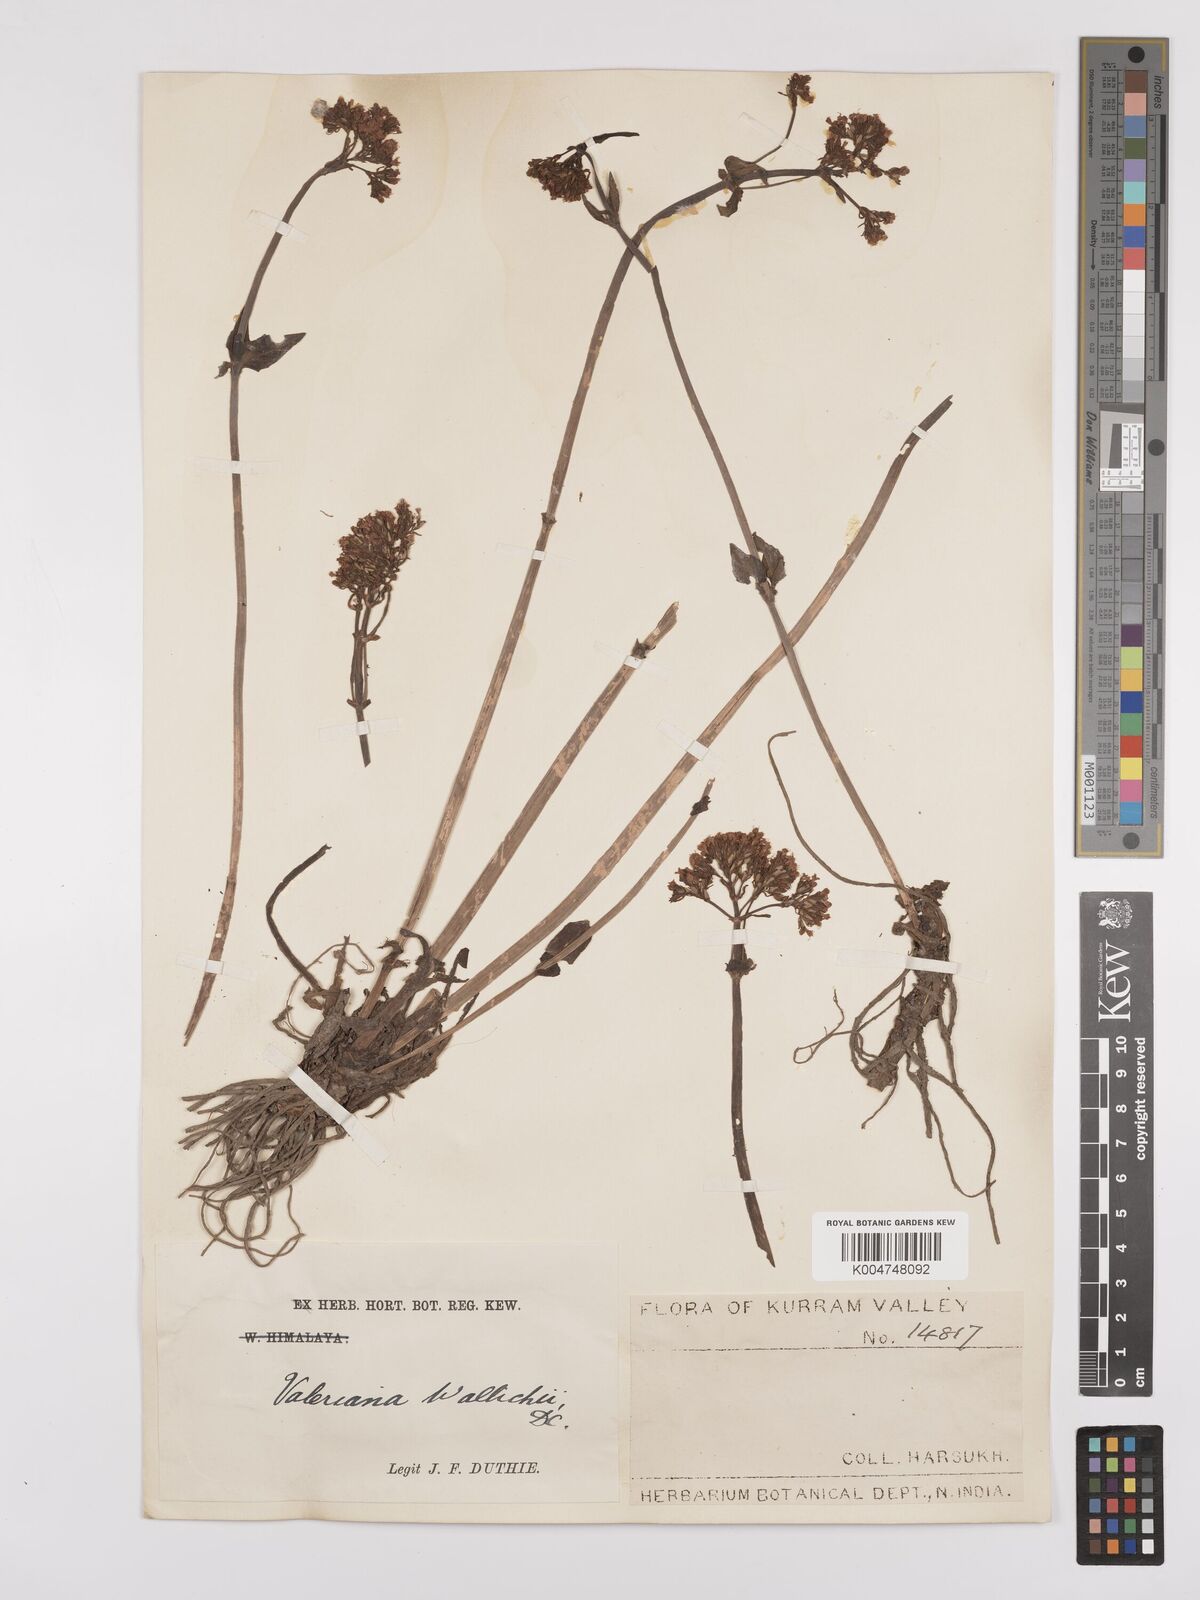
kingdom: Plantae
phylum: Tracheophyta
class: Magnoliopsida
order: Dipsacales
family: Caprifoliaceae
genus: Valeriana
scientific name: Valeriana
